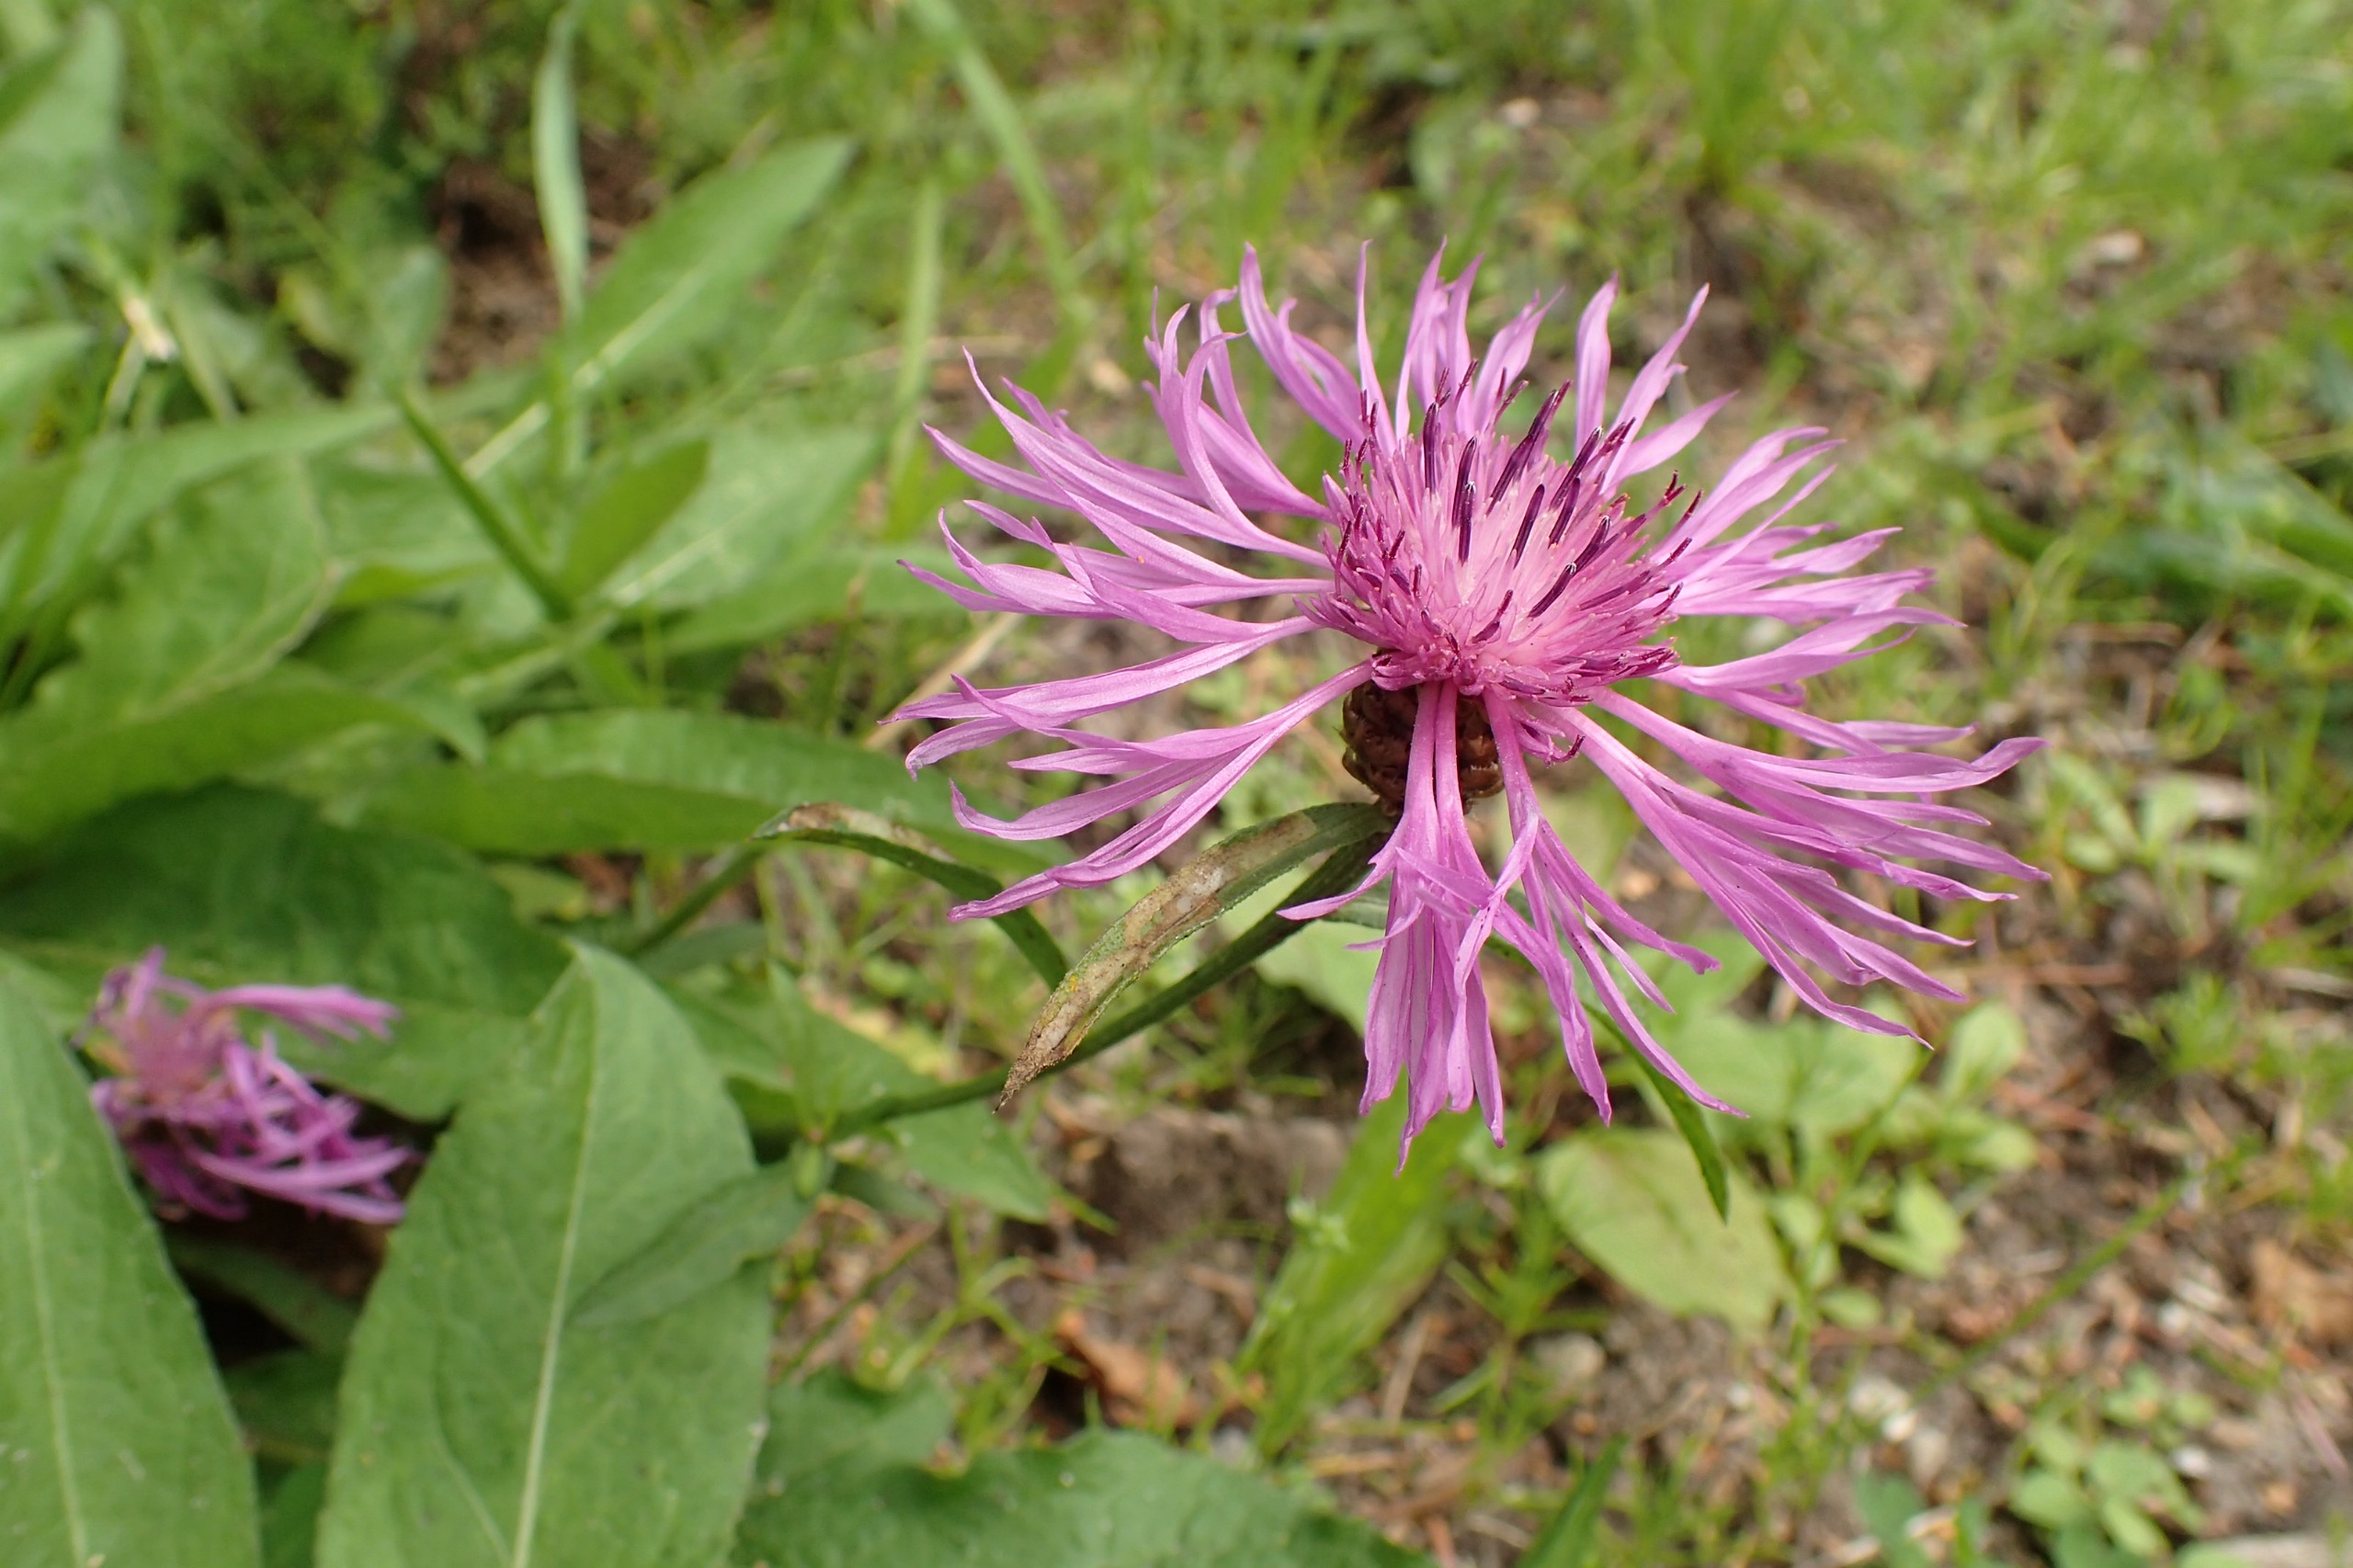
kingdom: Plantae
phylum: Tracheophyta
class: Magnoliopsida
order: Asterales
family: Asteraceae
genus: Centaurea
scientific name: Centaurea jacea
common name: Almindelig knopurt
